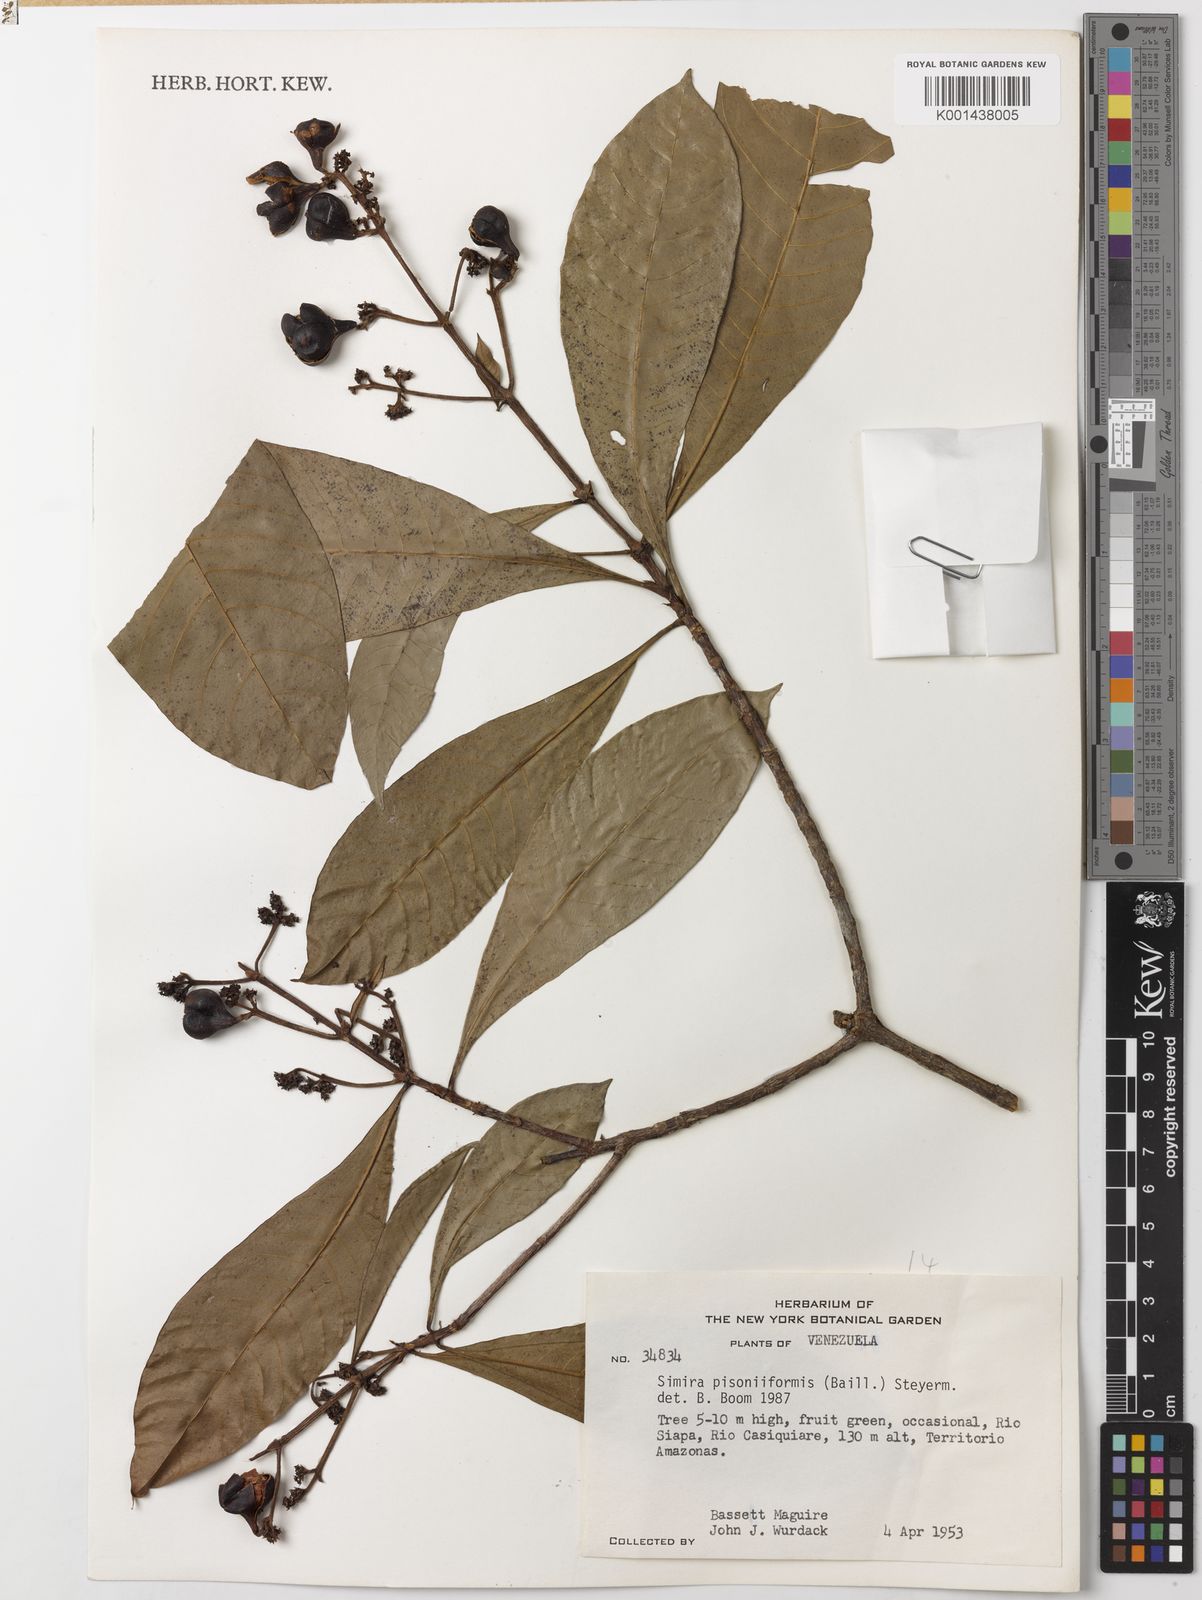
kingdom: Plantae
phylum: Tracheophyta
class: Magnoliopsida
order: Gentianales
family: Rubiaceae
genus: Simira
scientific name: Simira podocarpa
